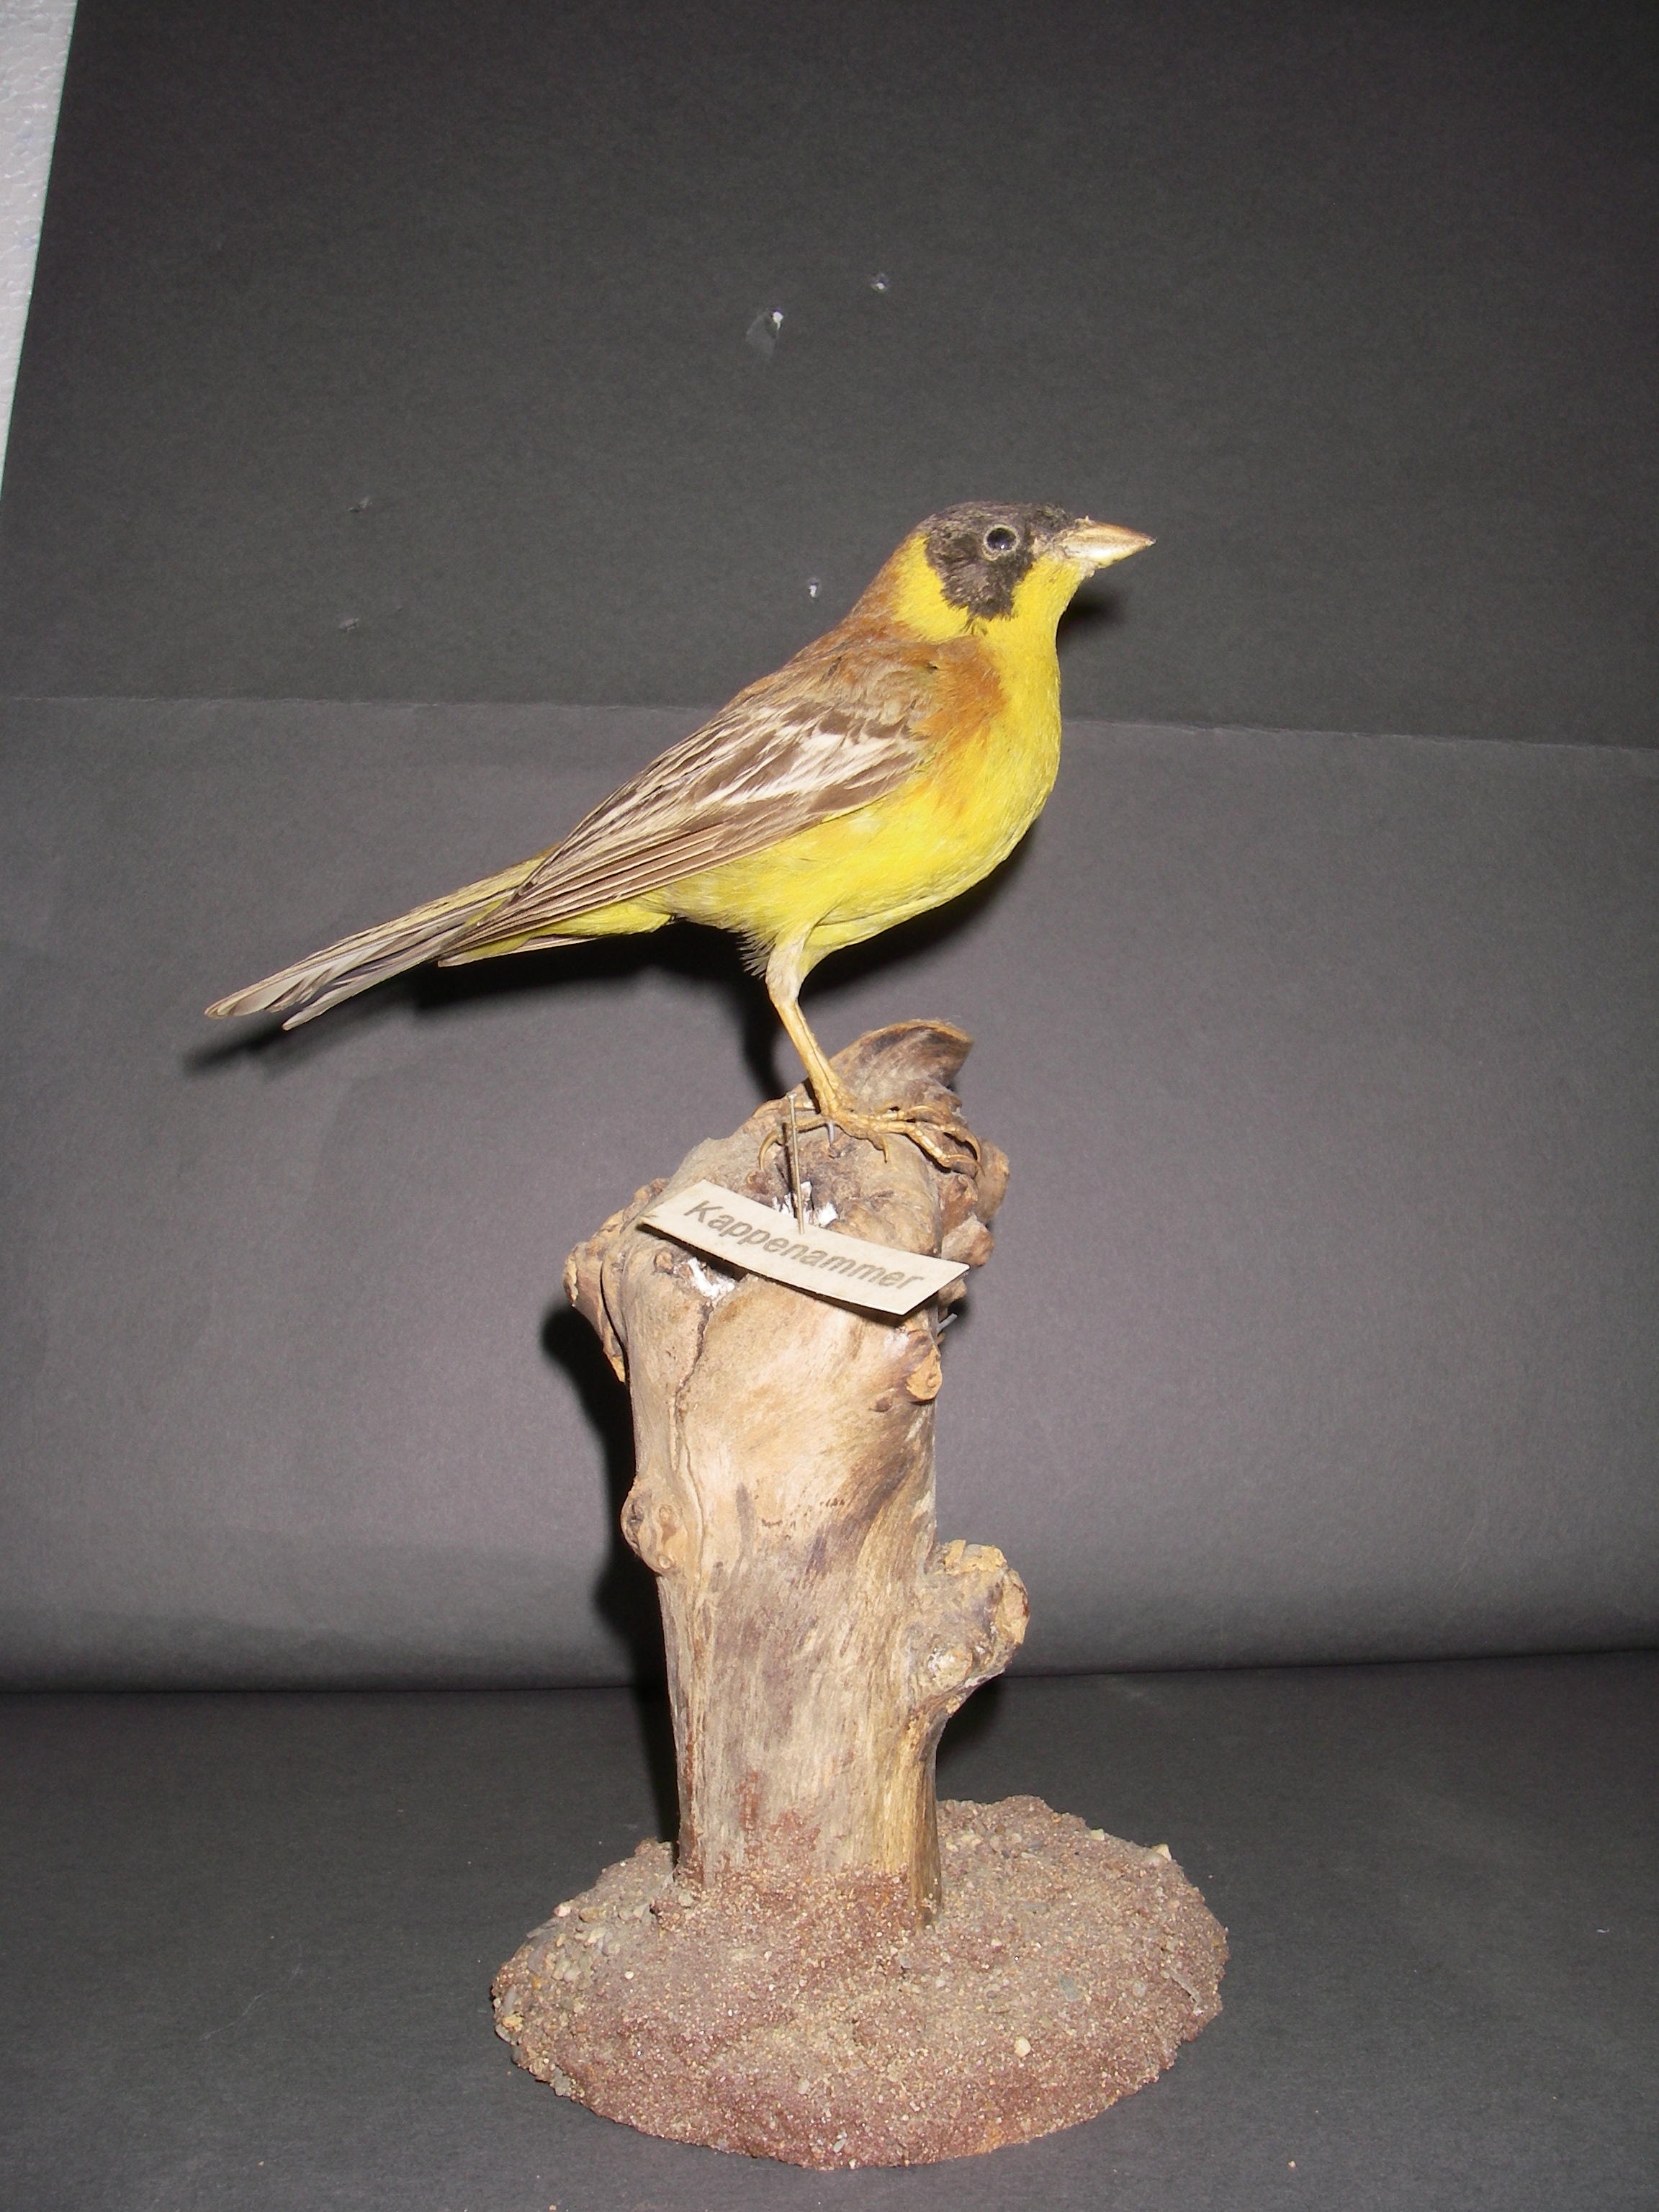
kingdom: Animalia
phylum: Chordata
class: Aves
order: Passeriformes
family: Emberizidae
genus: Emberiza
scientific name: Emberiza melanocephala
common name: Black-headed bunting
